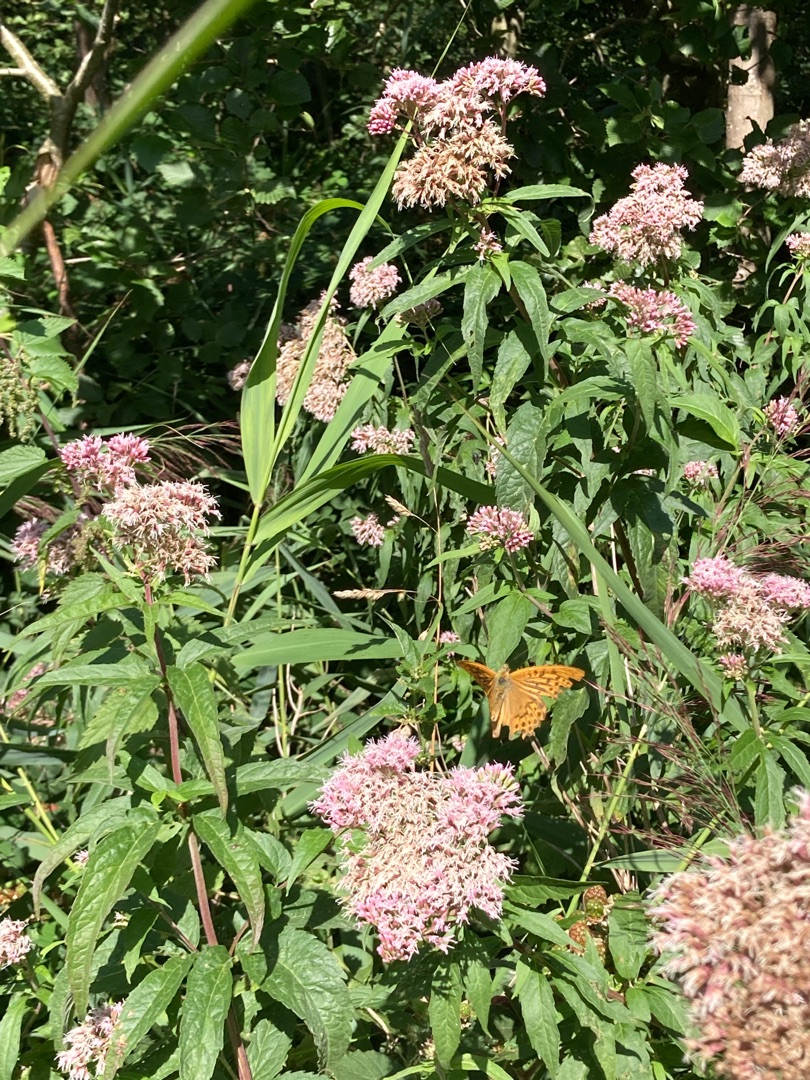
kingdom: Animalia
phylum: Arthropoda
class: Insecta
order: Lepidoptera
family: Nymphalidae
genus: Argynnis
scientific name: Argynnis paphia
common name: Kejserkåbe
